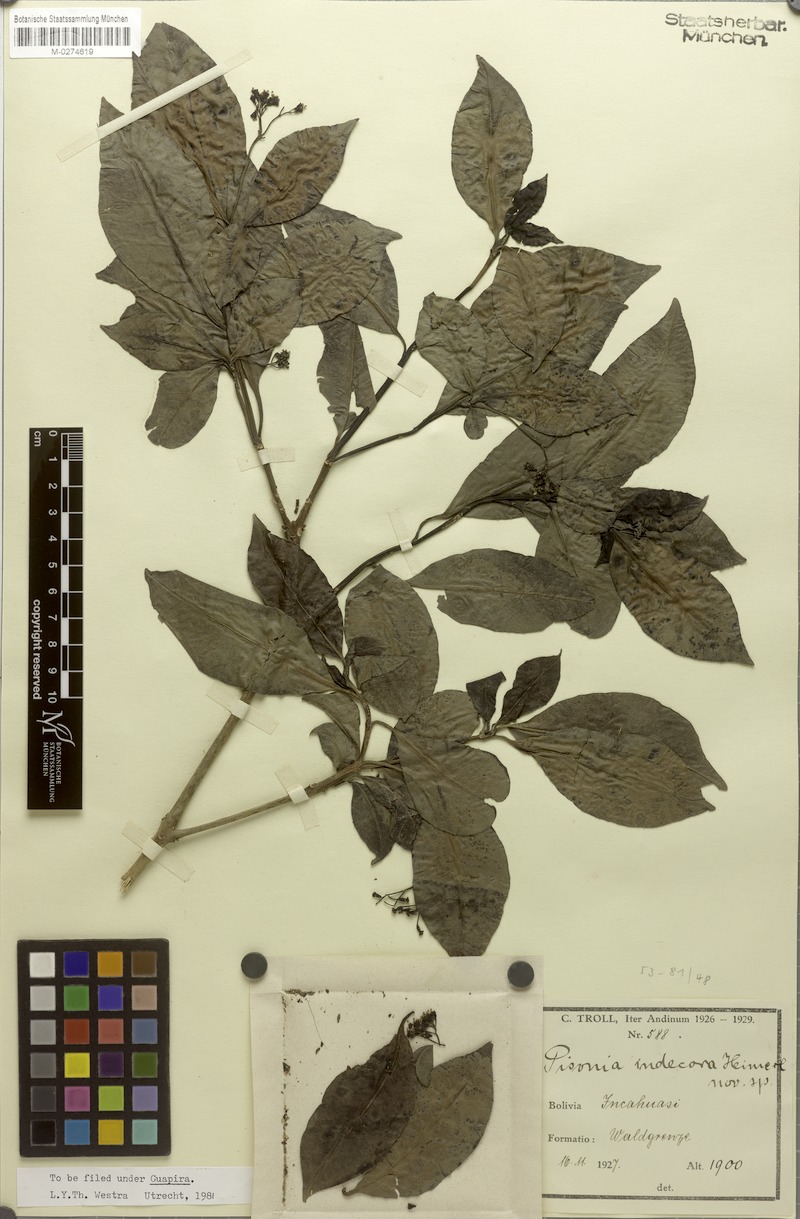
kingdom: Plantae
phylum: Tracheophyta
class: Magnoliopsida
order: Caryophyllales
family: Nyctaginaceae
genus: Pisonia
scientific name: Pisonia indecora
